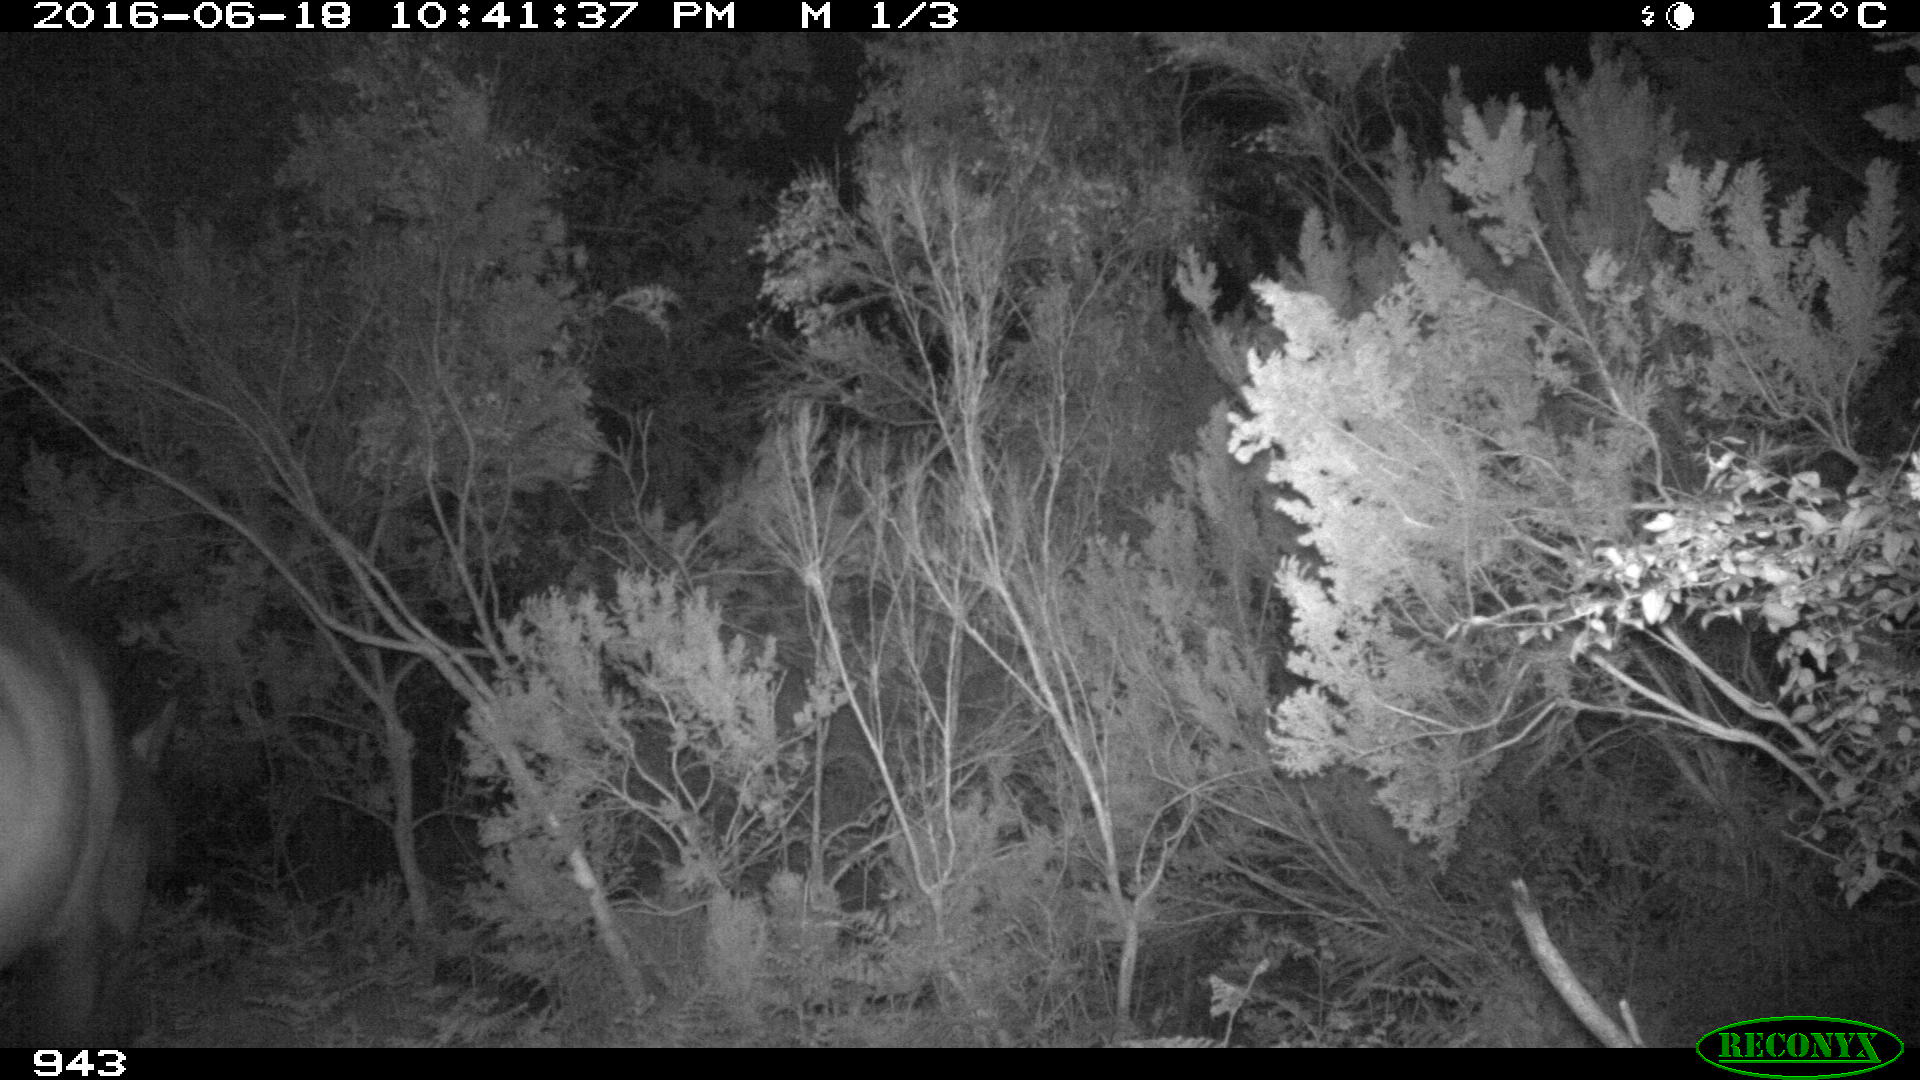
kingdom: Animalia
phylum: Chordata
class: Mammalia
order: Perissodactyla
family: Equidae
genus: Equus
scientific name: Equus caballus
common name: Horse
